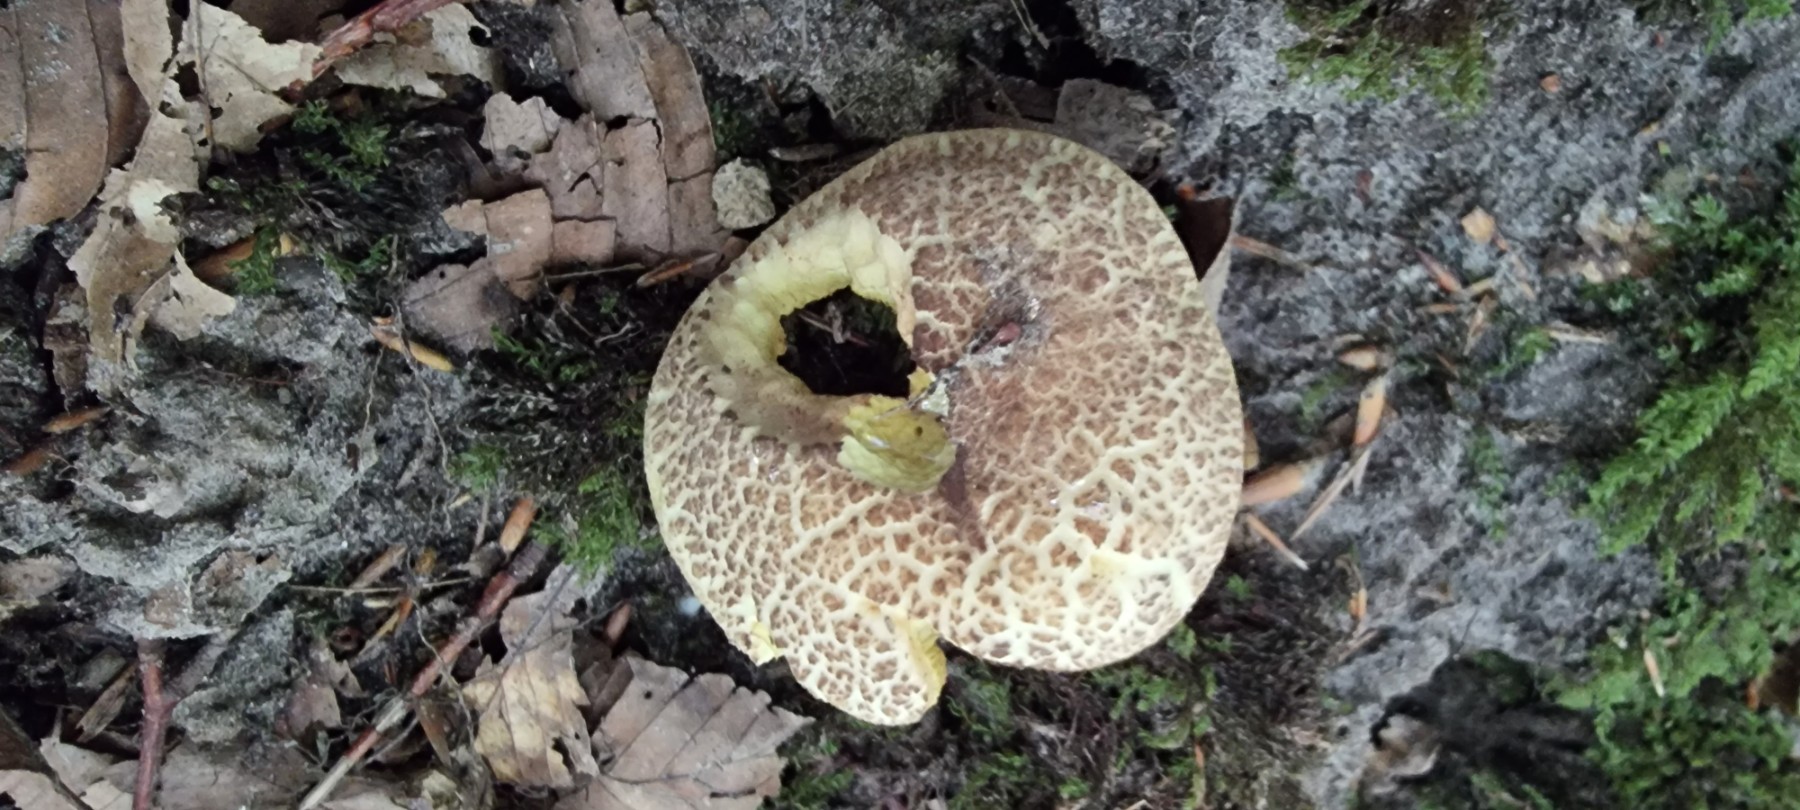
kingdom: Fungi
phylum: Basidiomycota
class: Agaricomycetes
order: Boletales
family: Boletaceae
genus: Xerocomellus
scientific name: Xerocomellus porosporus
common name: hvidsprukken rørhat
